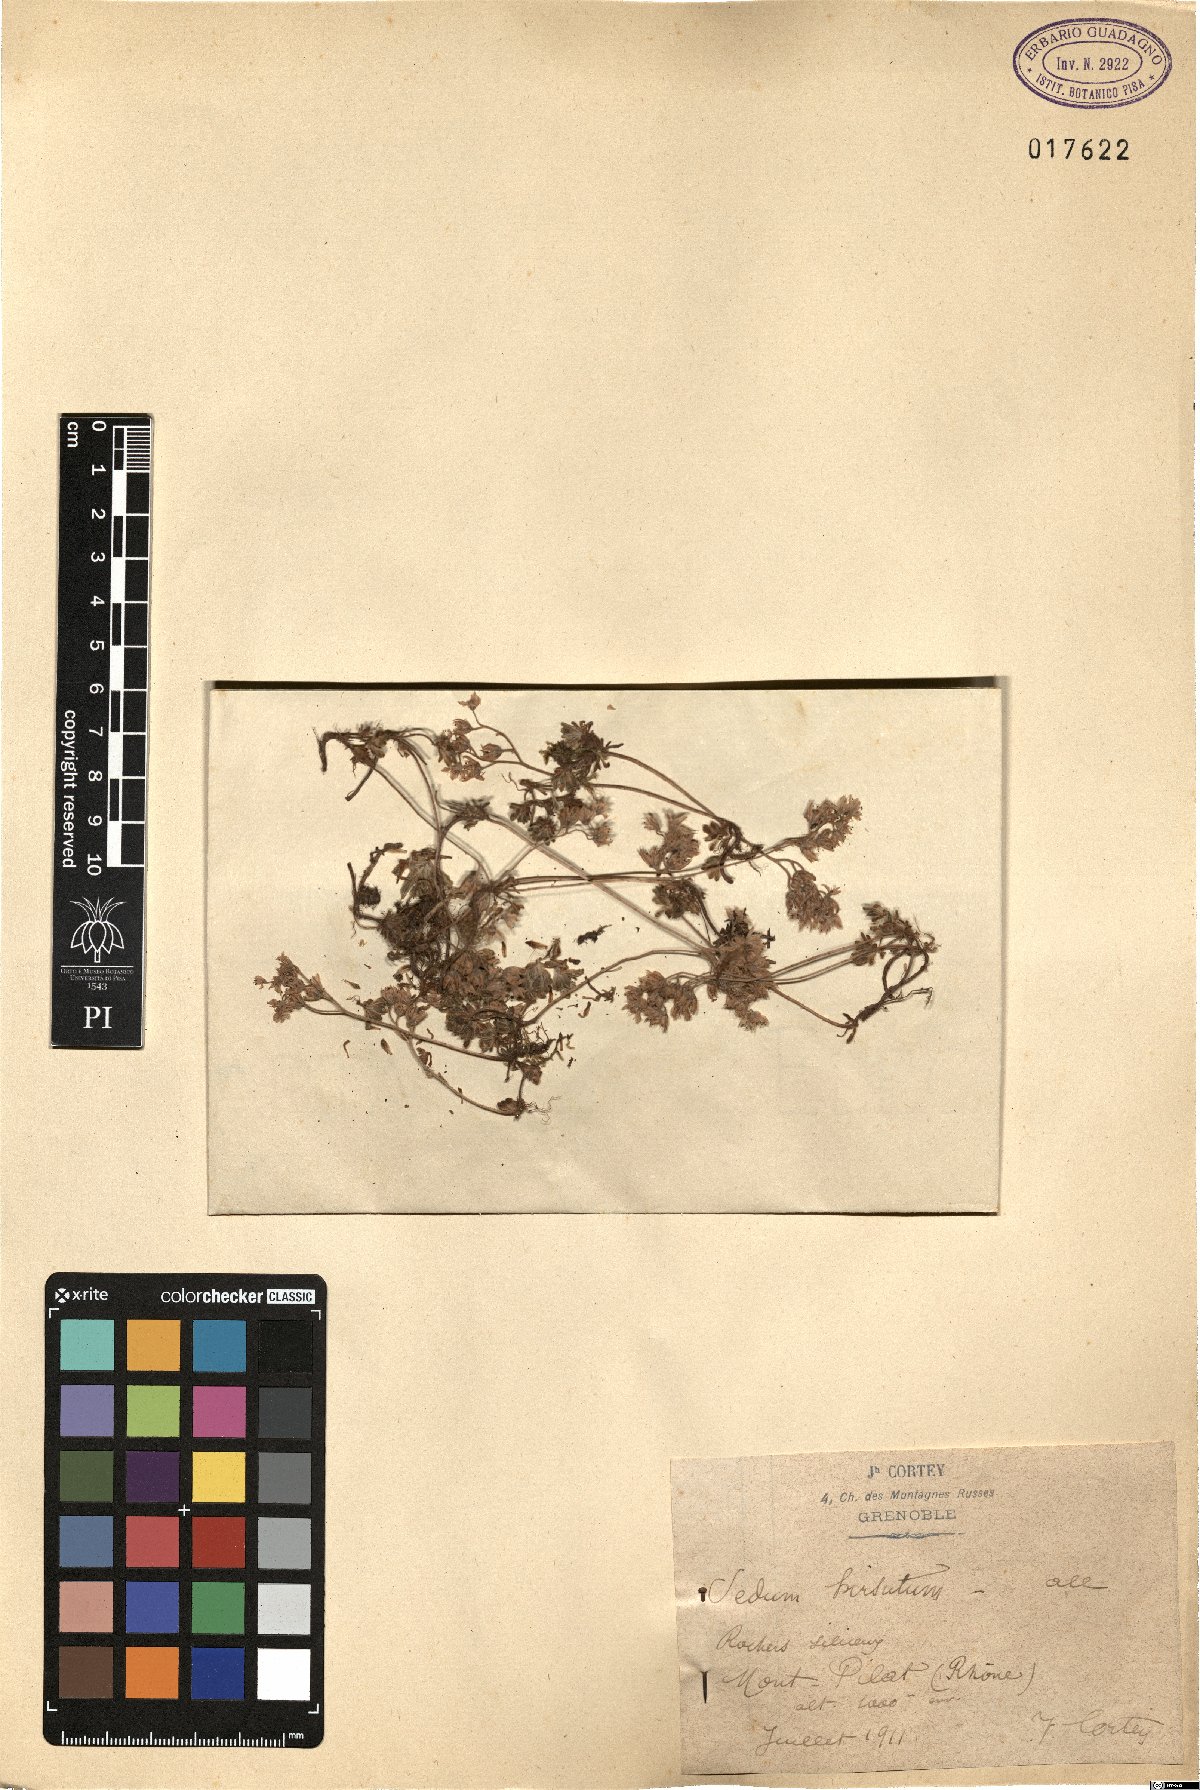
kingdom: Plantae
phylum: Tracheophyta
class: Magnoliopsida
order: Saxifragales
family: Crassulaceae
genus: Sedum
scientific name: Sedum hirsutum
